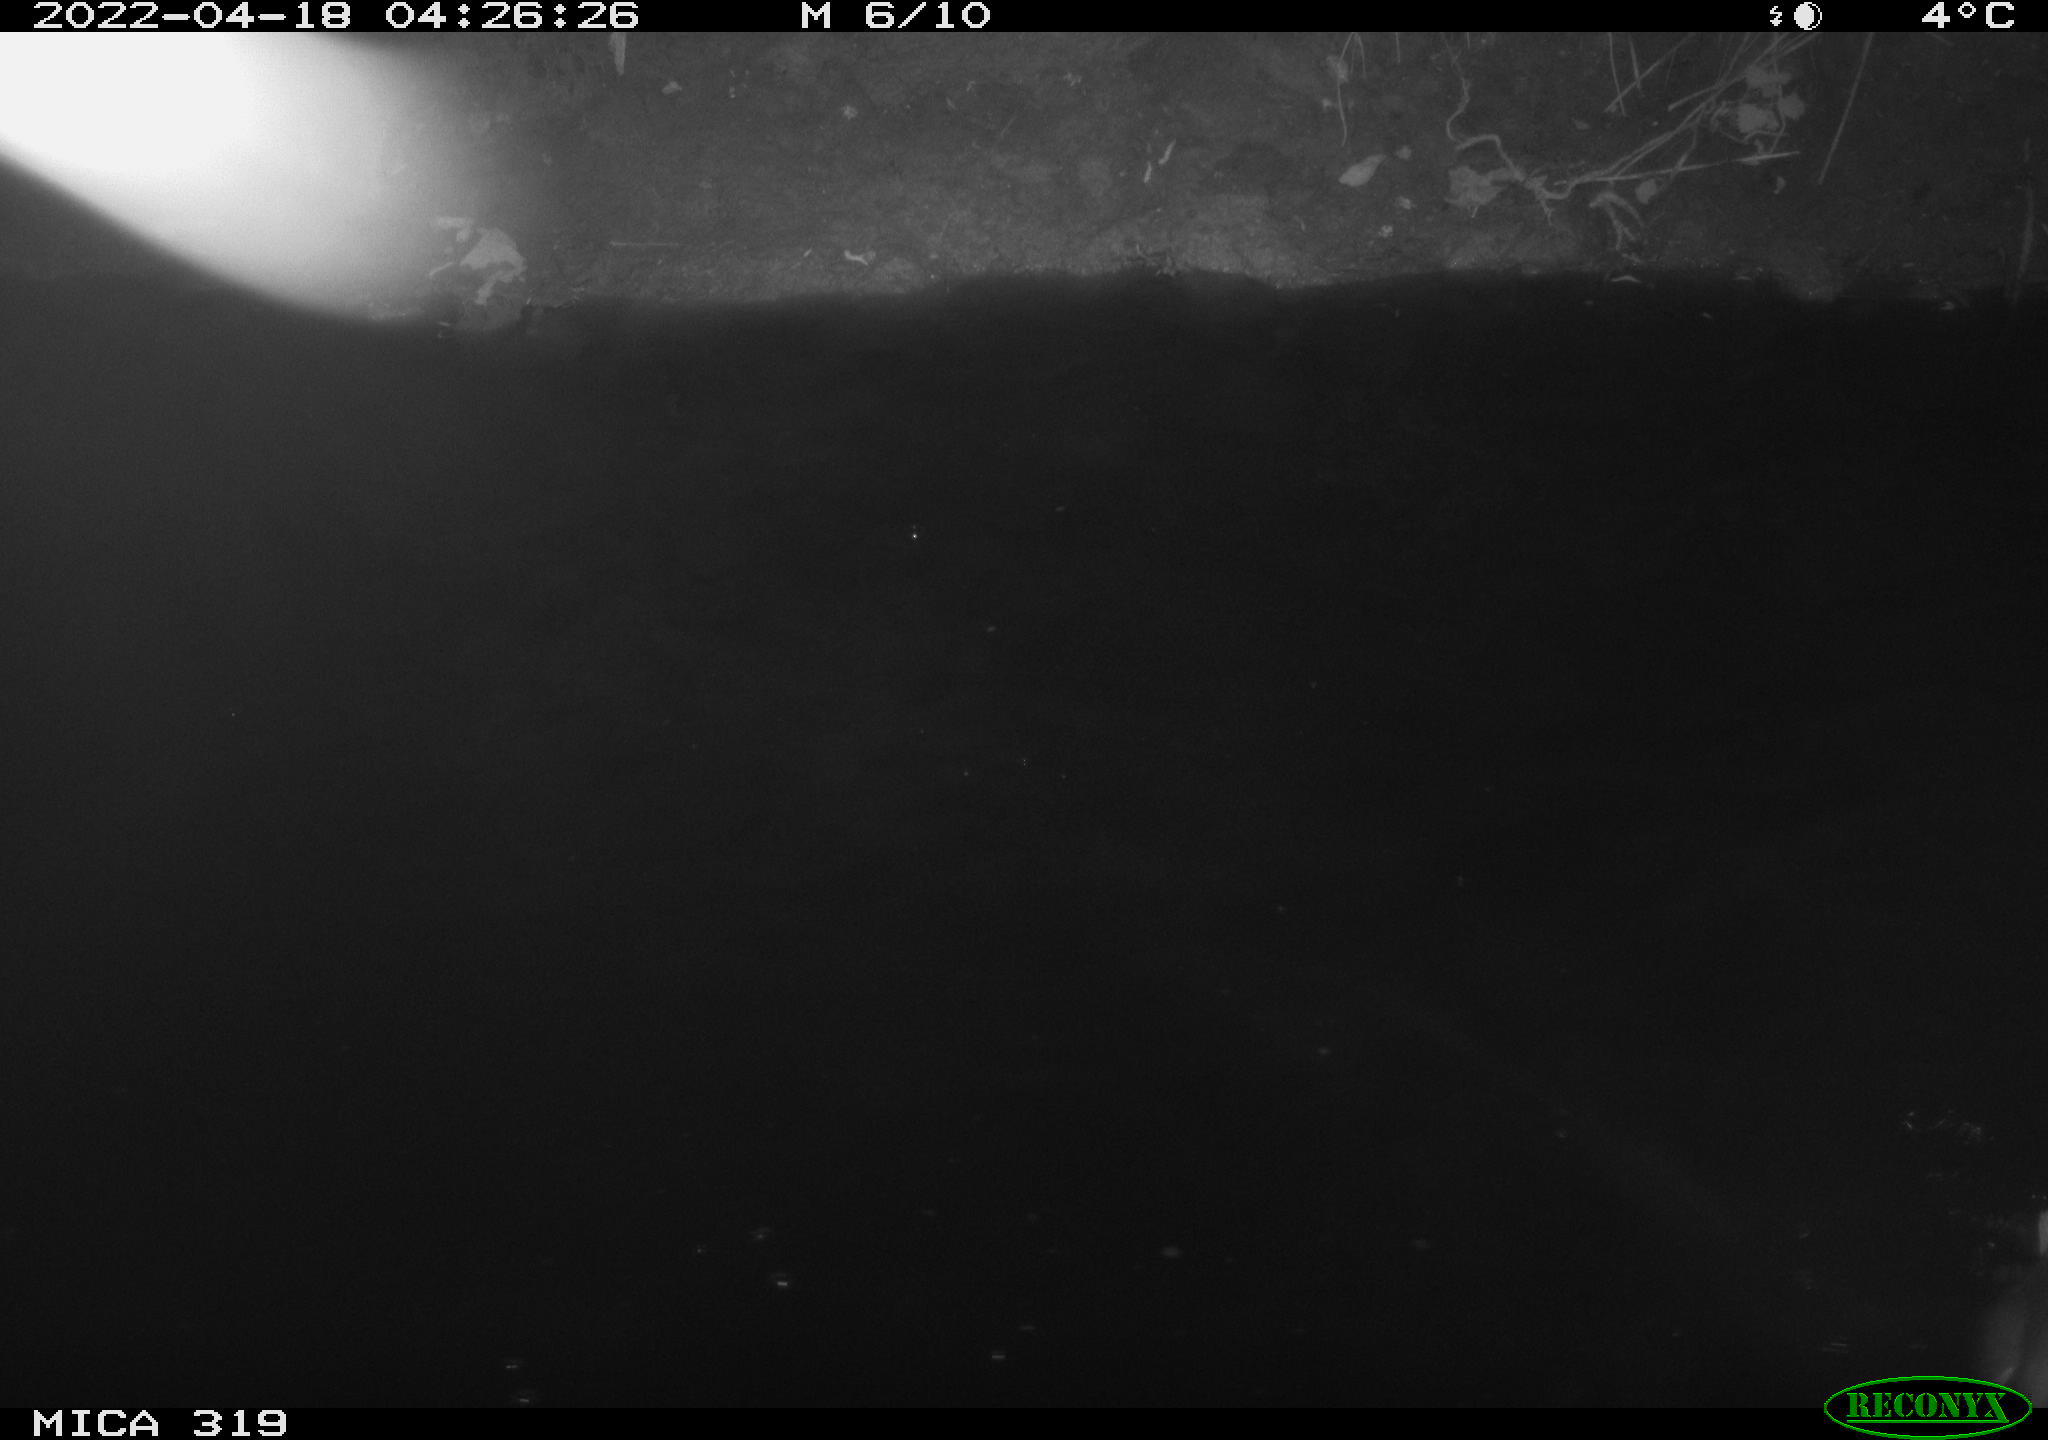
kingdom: Animalia
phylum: Chordata
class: Aves
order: Gruiformes
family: Rallidae
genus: Gallinula
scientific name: Gallinula chloropus
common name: Common moorhen
